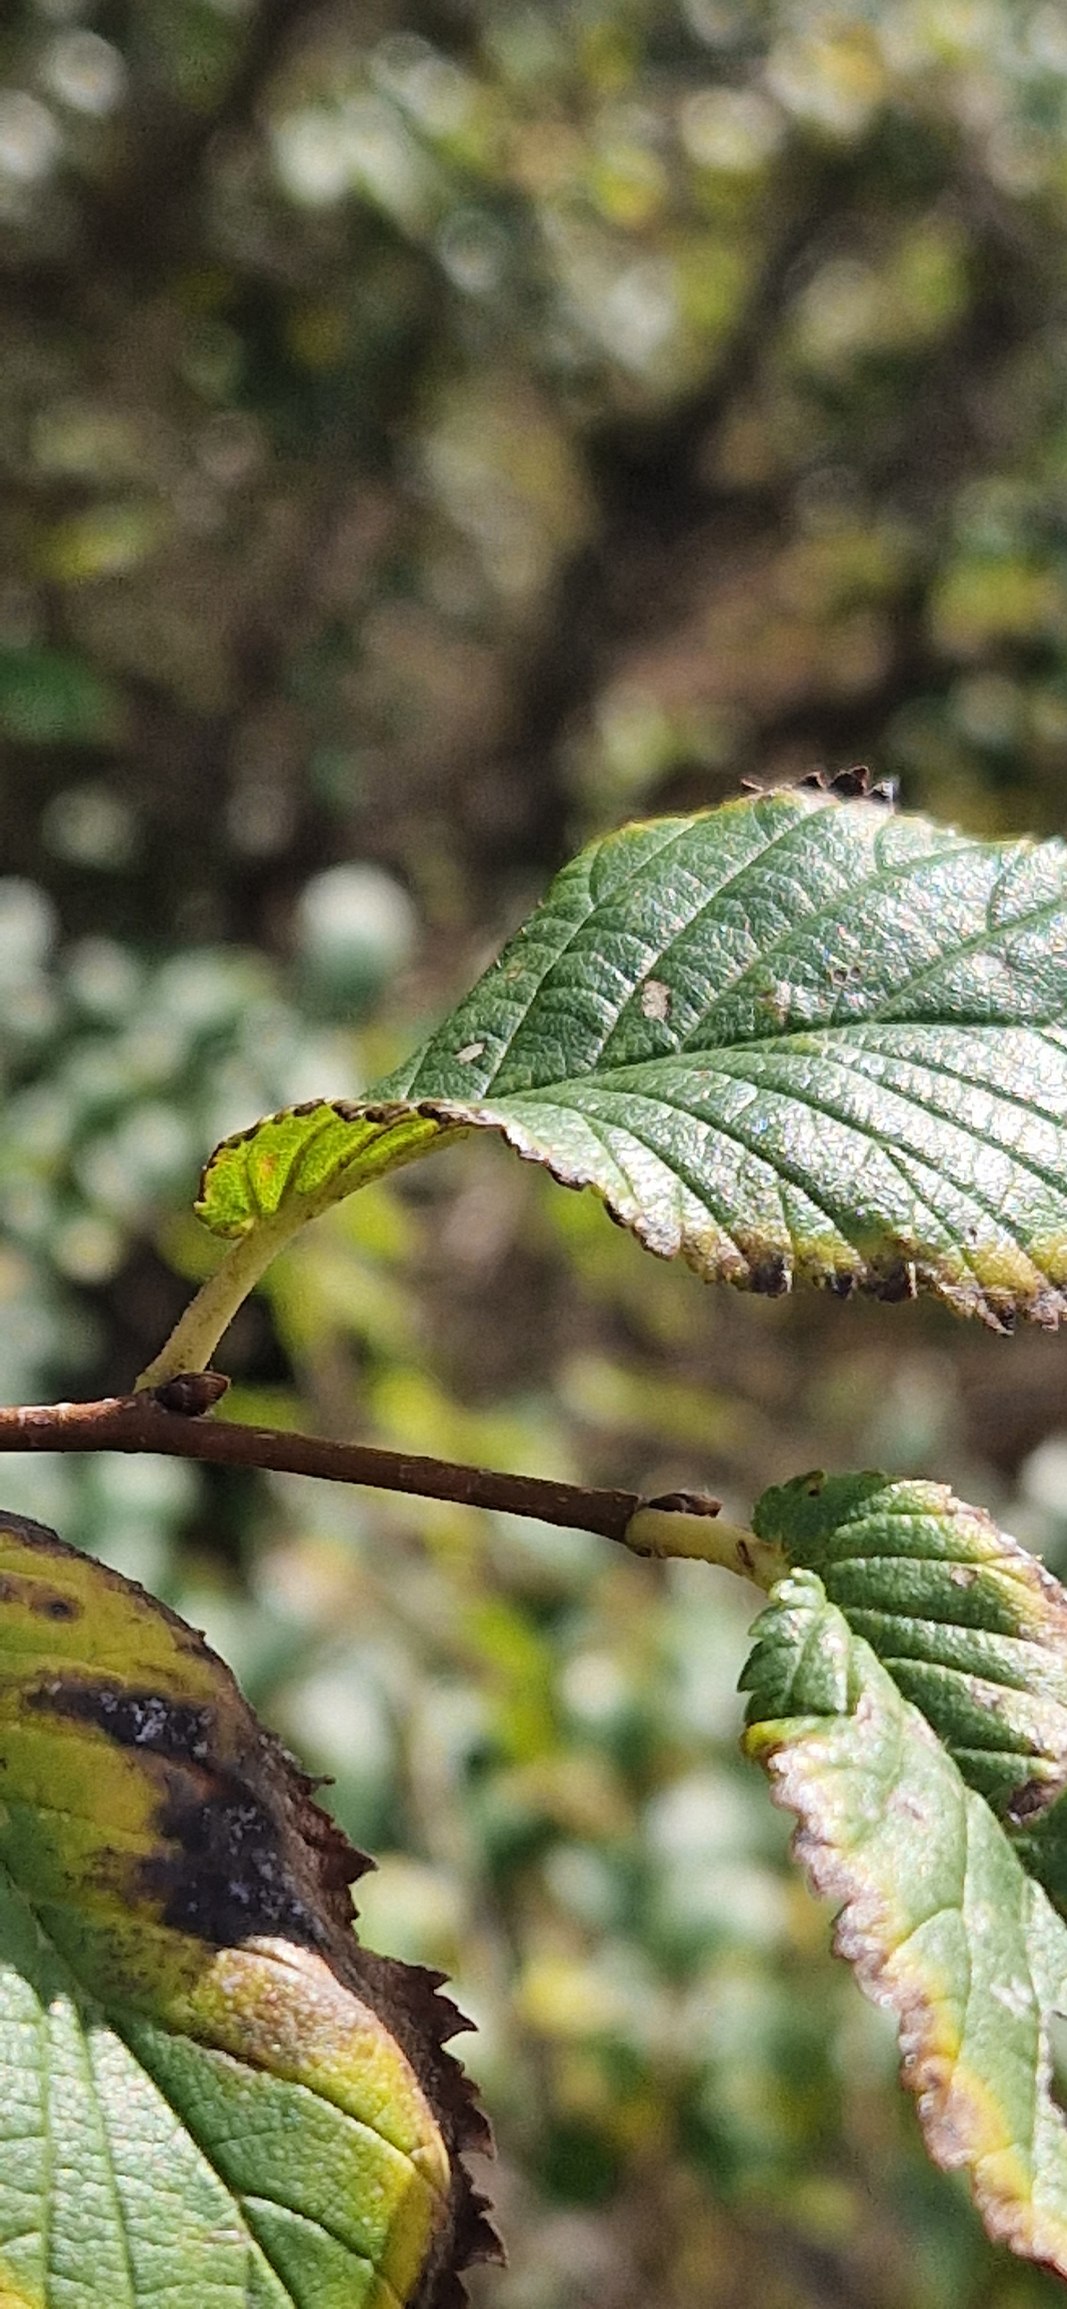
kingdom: Plantae
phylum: Tracheophyta
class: Magnoliopsida
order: Rosales
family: Ulmaceae
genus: Ulmus
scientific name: Ulmus minor
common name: Småbladet elm
